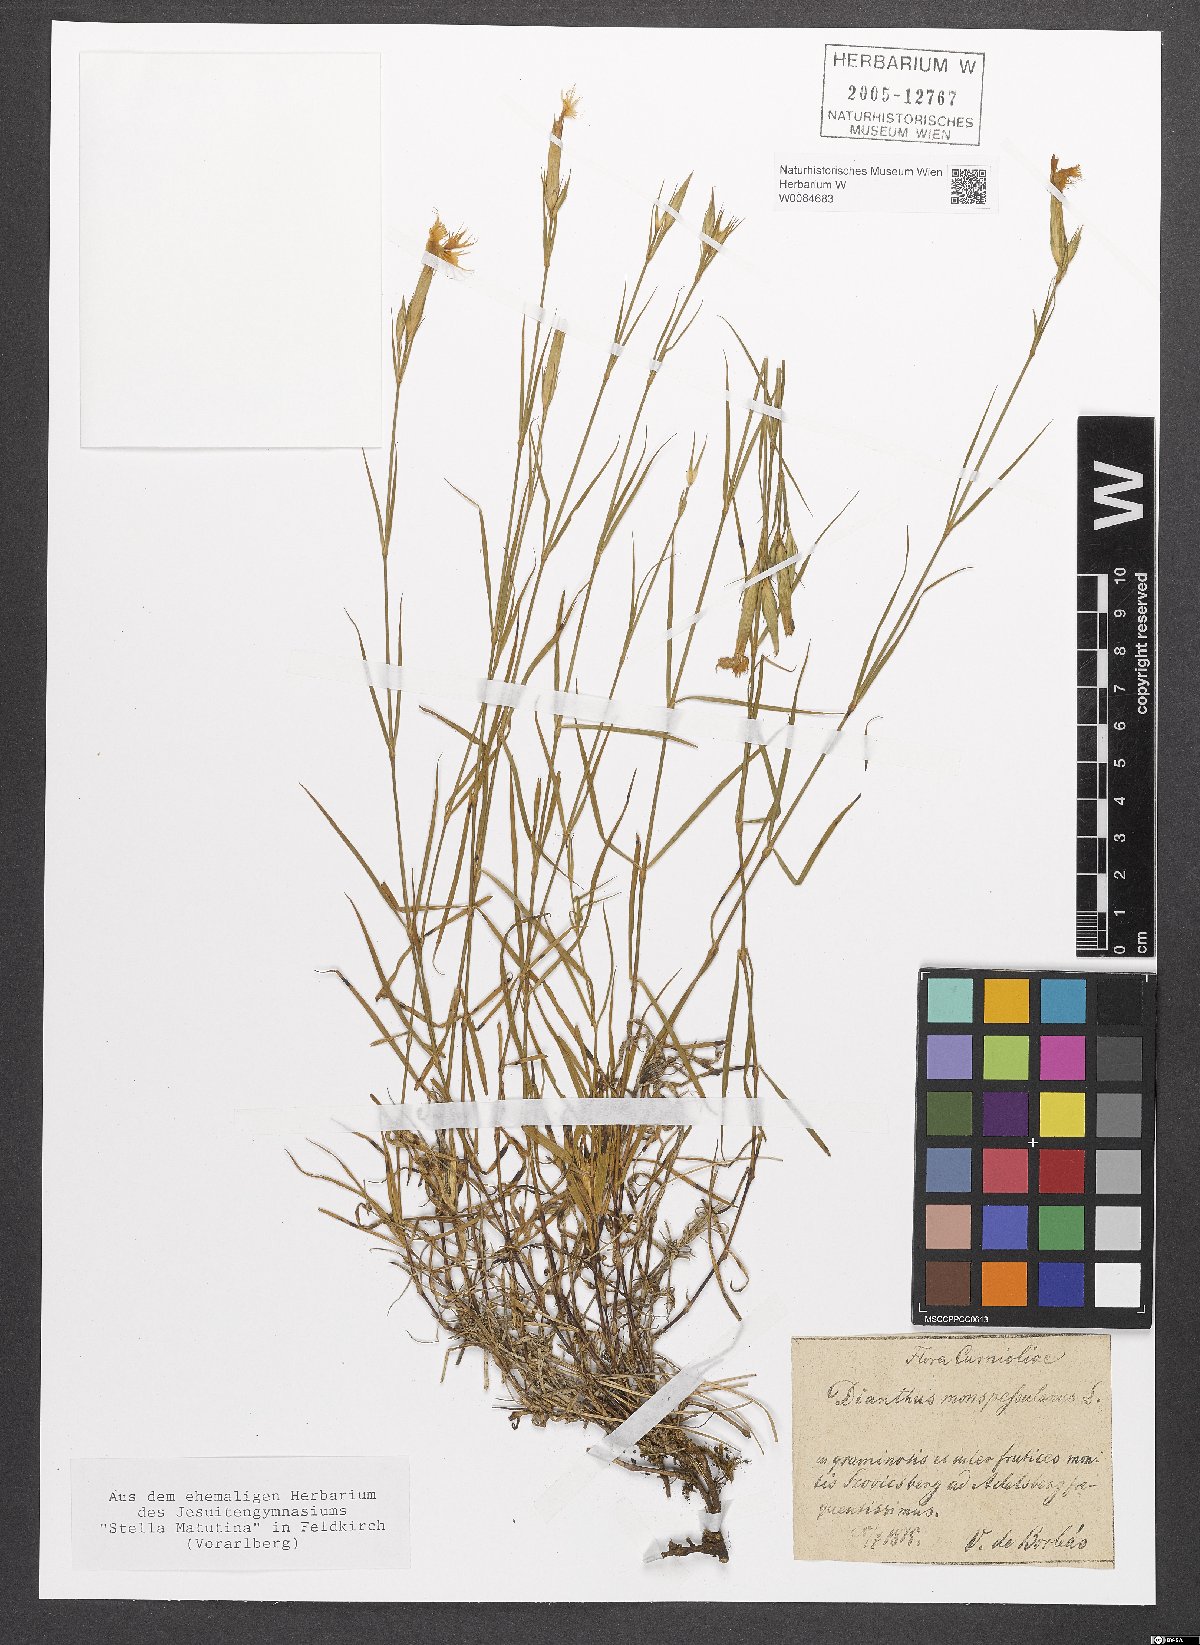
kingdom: Plantae
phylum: Tracheophyta
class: Magnoliopsida
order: Caryophyllales
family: Caryophyllaceae
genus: Dianthus
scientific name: Dianthus hyssopifolius
